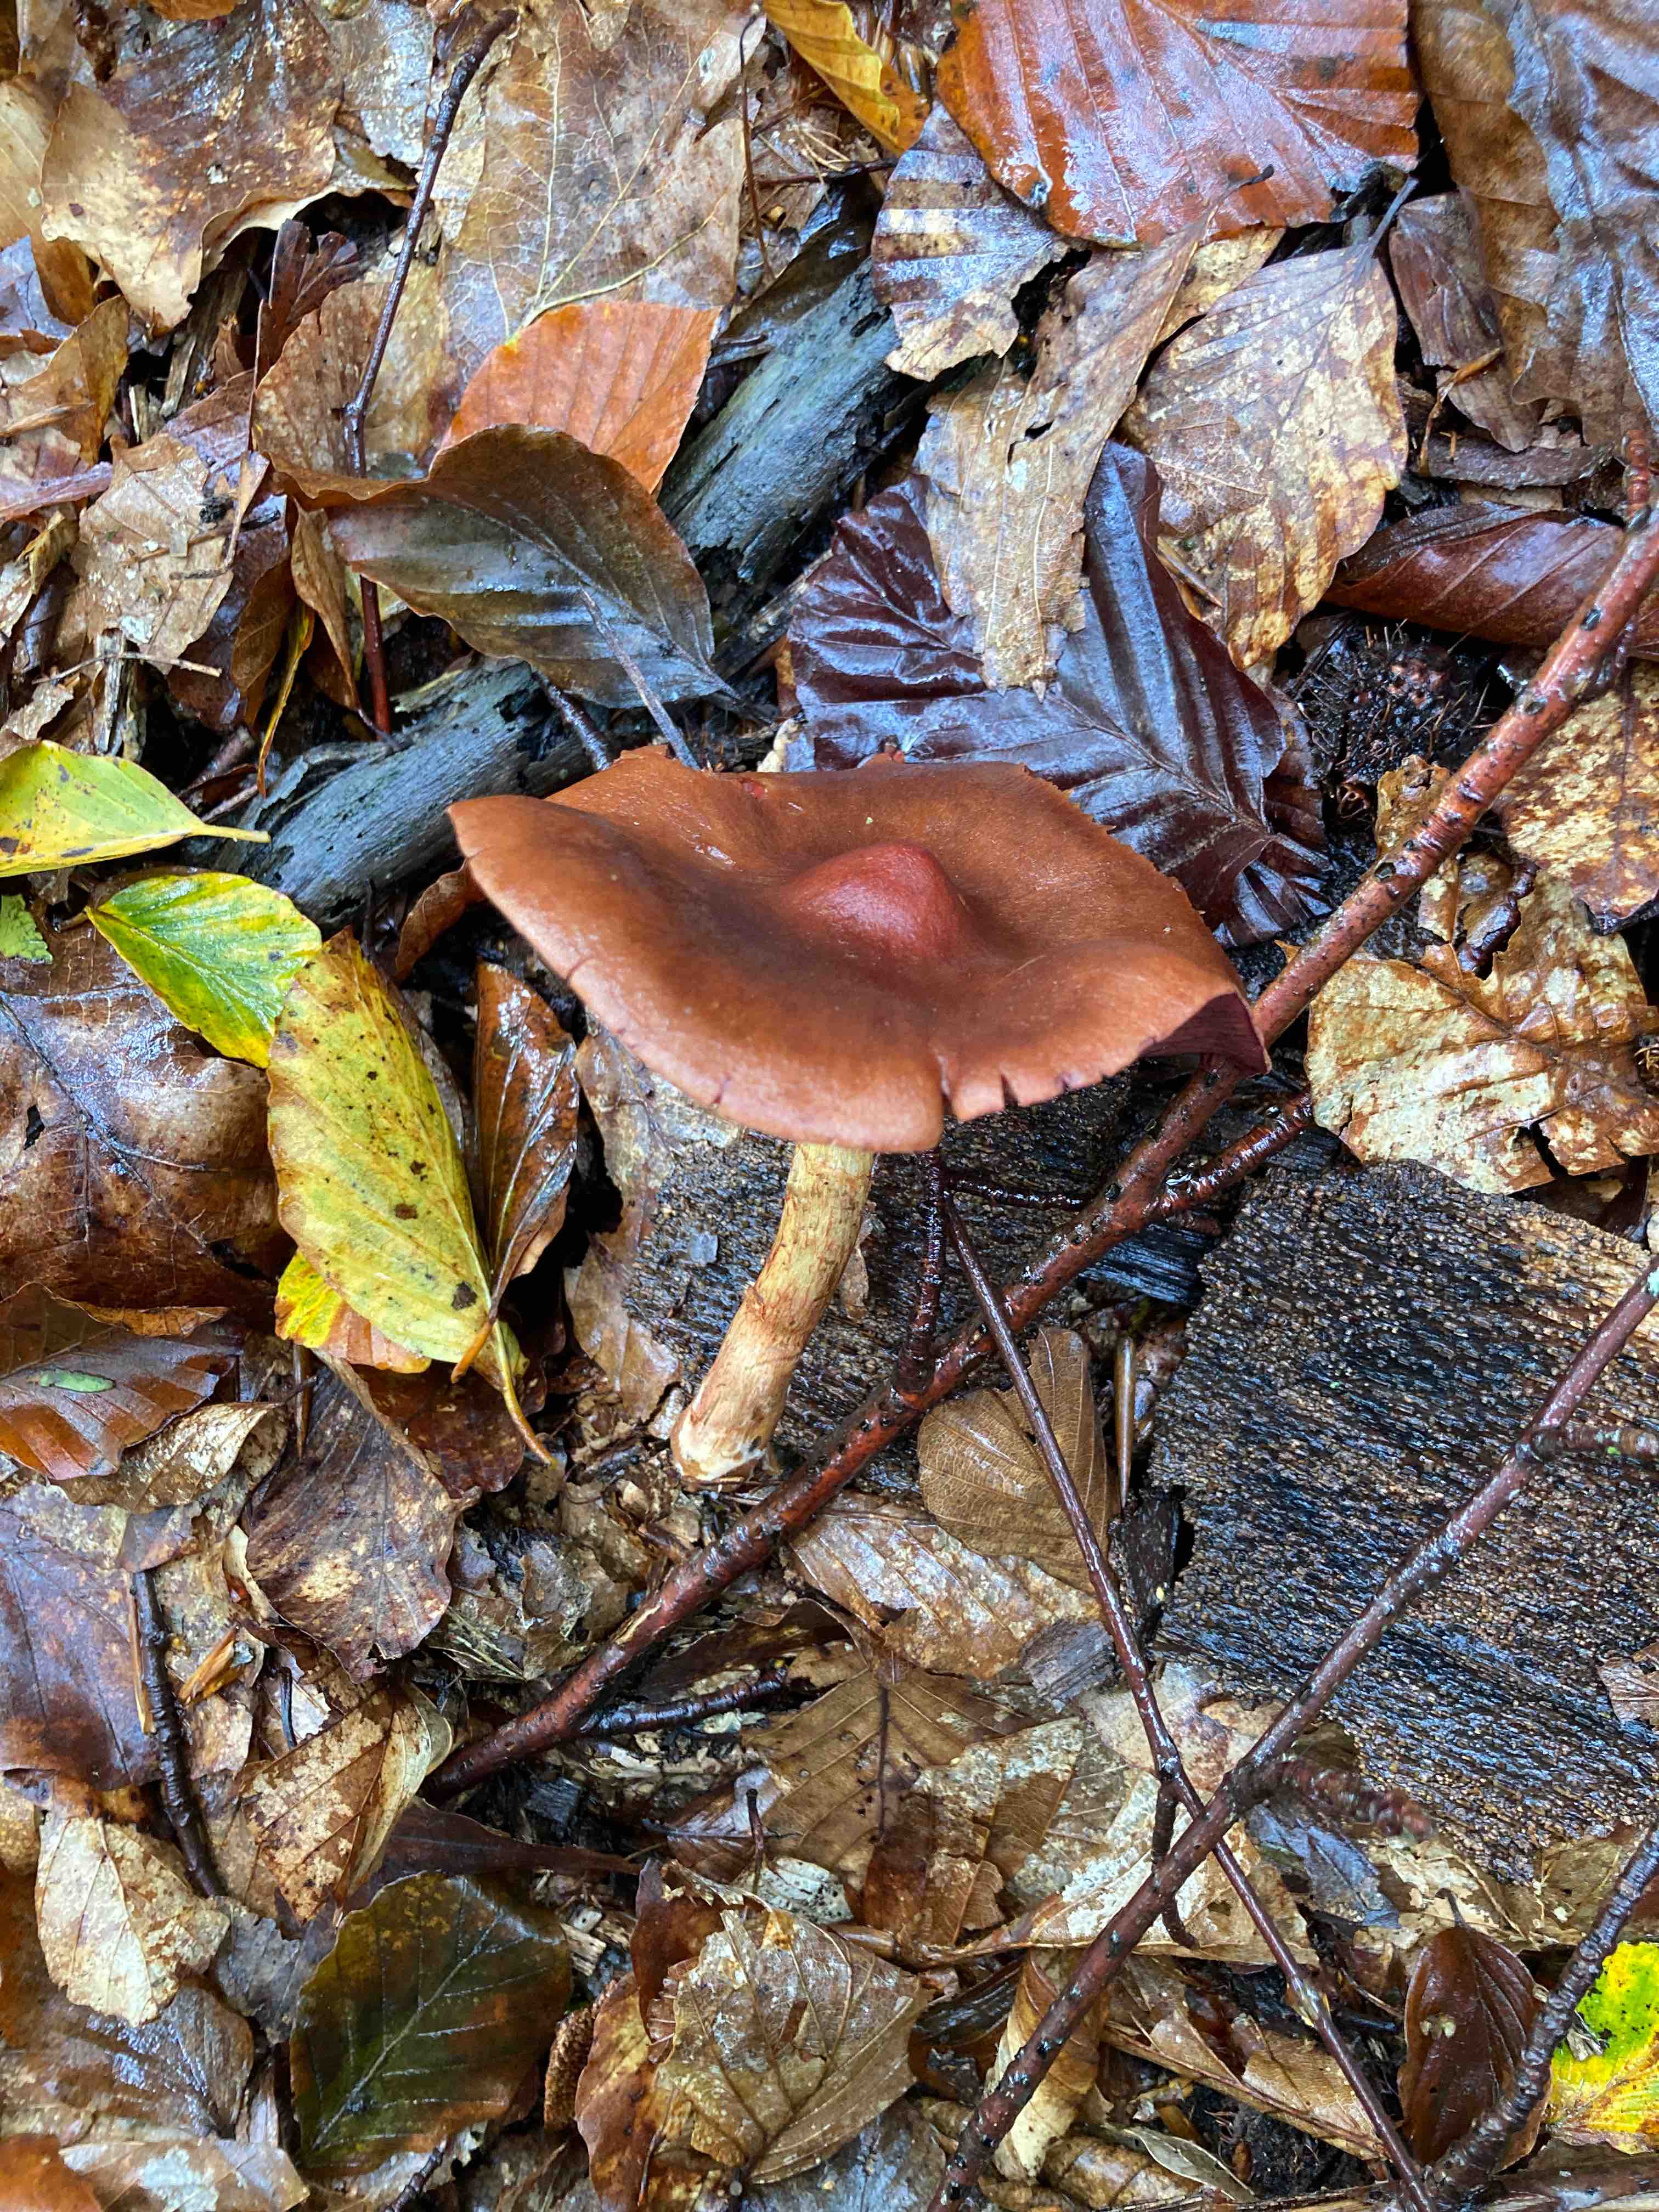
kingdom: Fungi
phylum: Basidiomycota
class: Agaricomycetes
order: Agaricales
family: Cortinariaceae
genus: Cortinarius
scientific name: Cortinarius
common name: cinnoberbladet slørhat
